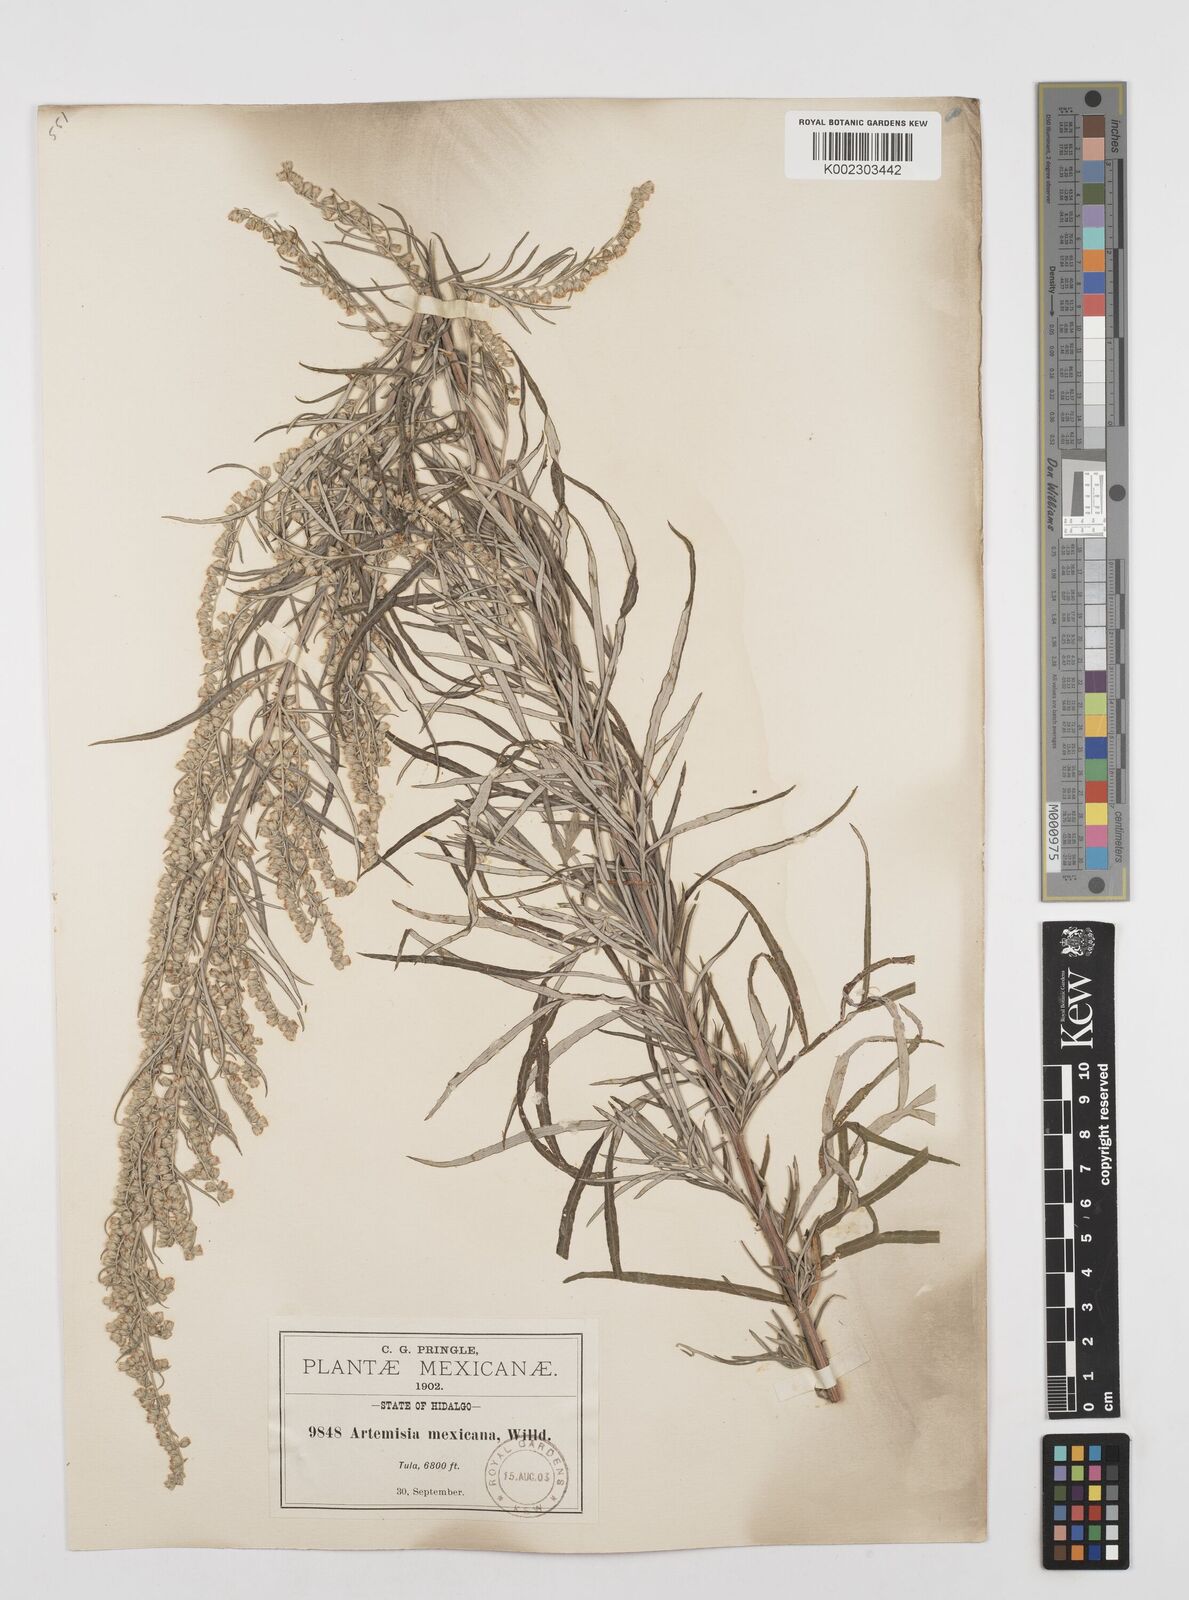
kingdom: Plantae
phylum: Tracheophyta
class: Magnoliopsida
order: Asterales
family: Asteraceae
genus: Artemisia
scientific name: Artemisia ludoviciana
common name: Western mugwort
